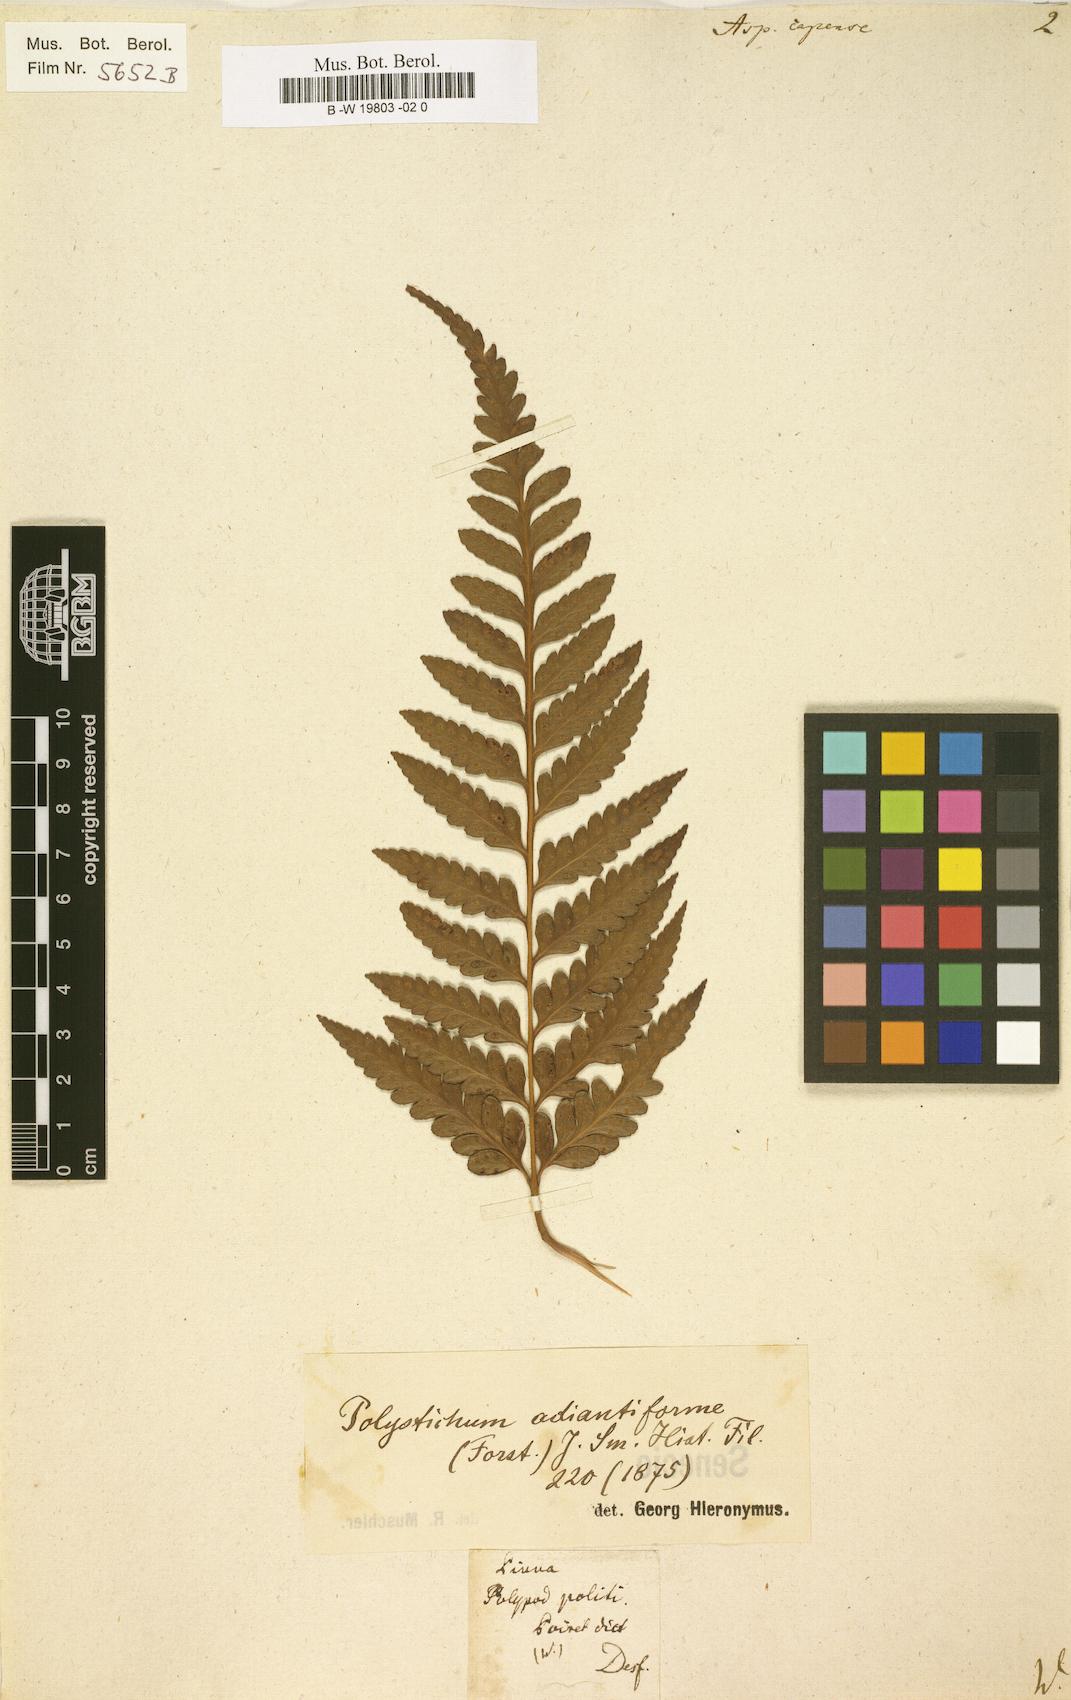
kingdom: Plantae
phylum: Tracheophyta
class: Polypodiopsida
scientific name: Polypodiopsida
